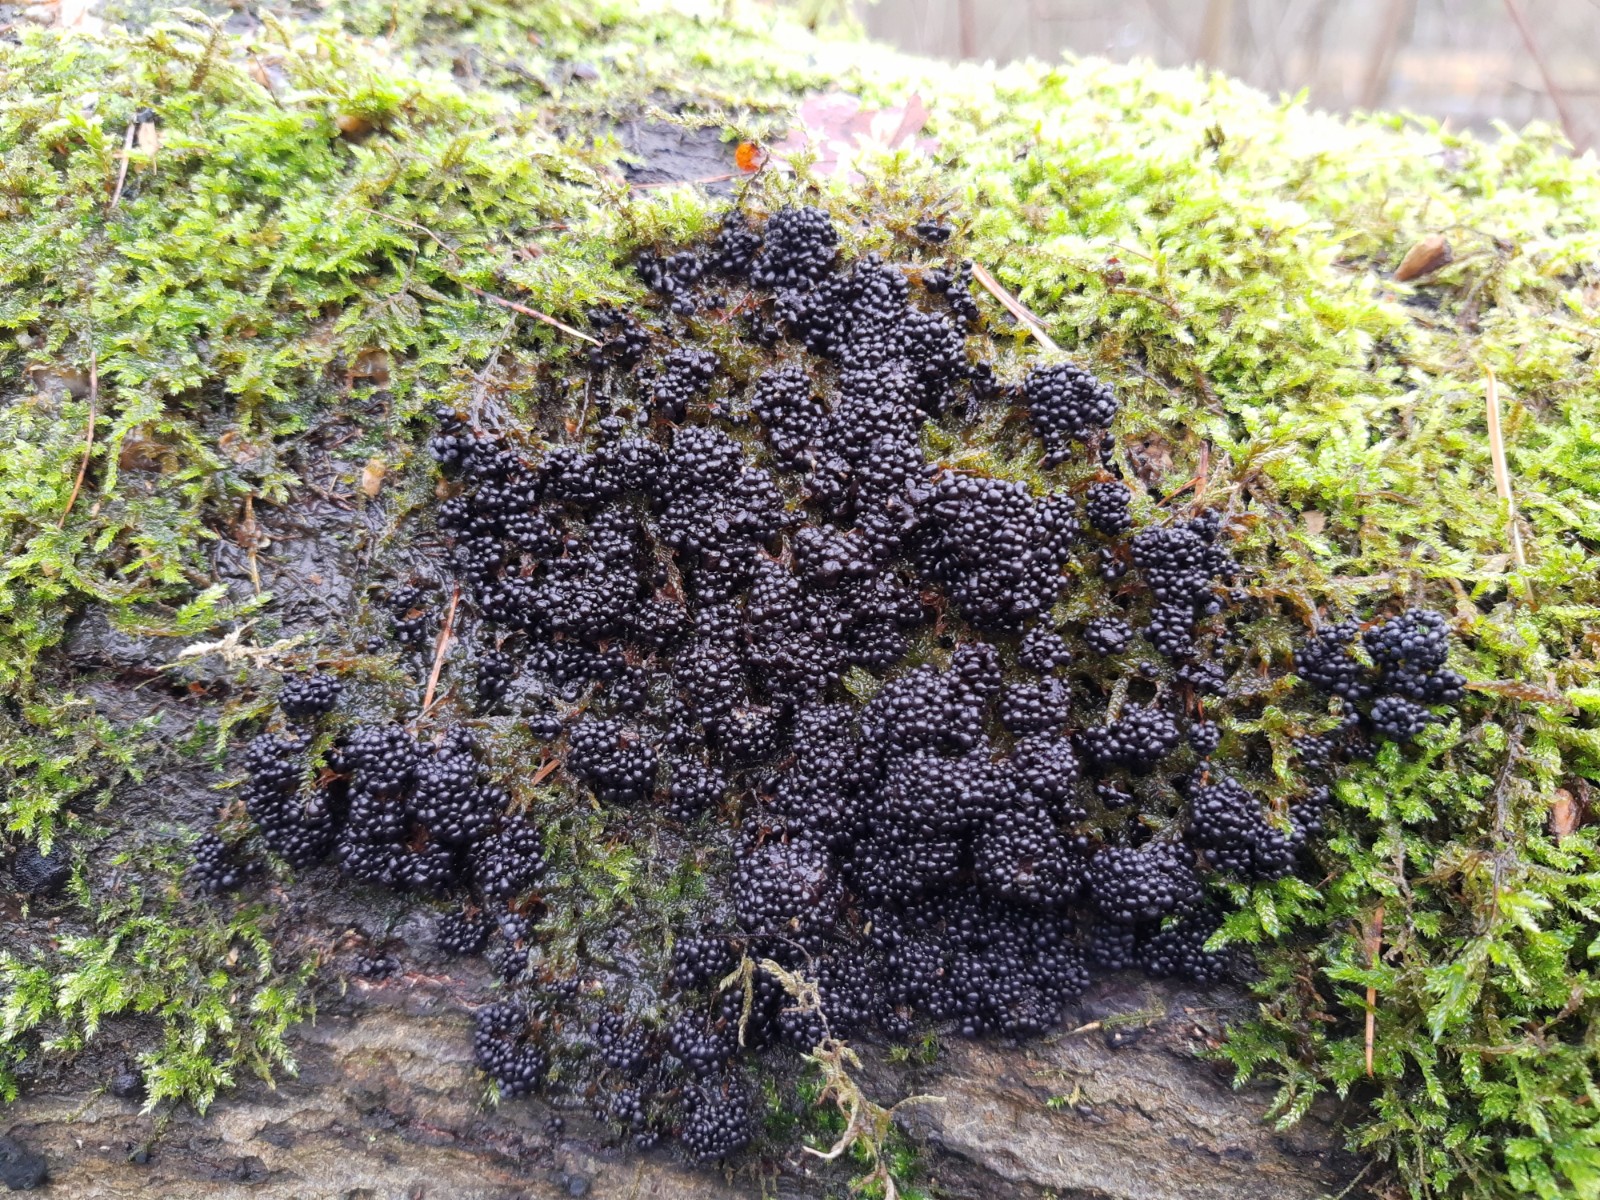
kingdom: Protozoa
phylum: Mycetozoa
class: Myxomycetes
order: Physarales
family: Physaraceae
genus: Badhamia
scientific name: Badhamia utricularis
